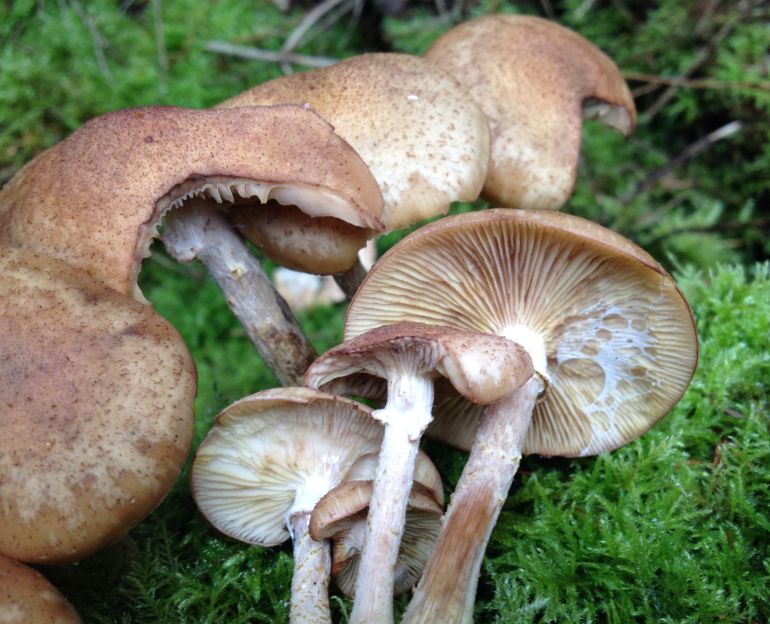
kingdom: Fungi
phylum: Basidiomycota
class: Agaricomycetes
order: Agaricales
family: Physalacriaceae
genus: Armillaria
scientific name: Armillaria ostoyae
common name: mørk honningsvamp
